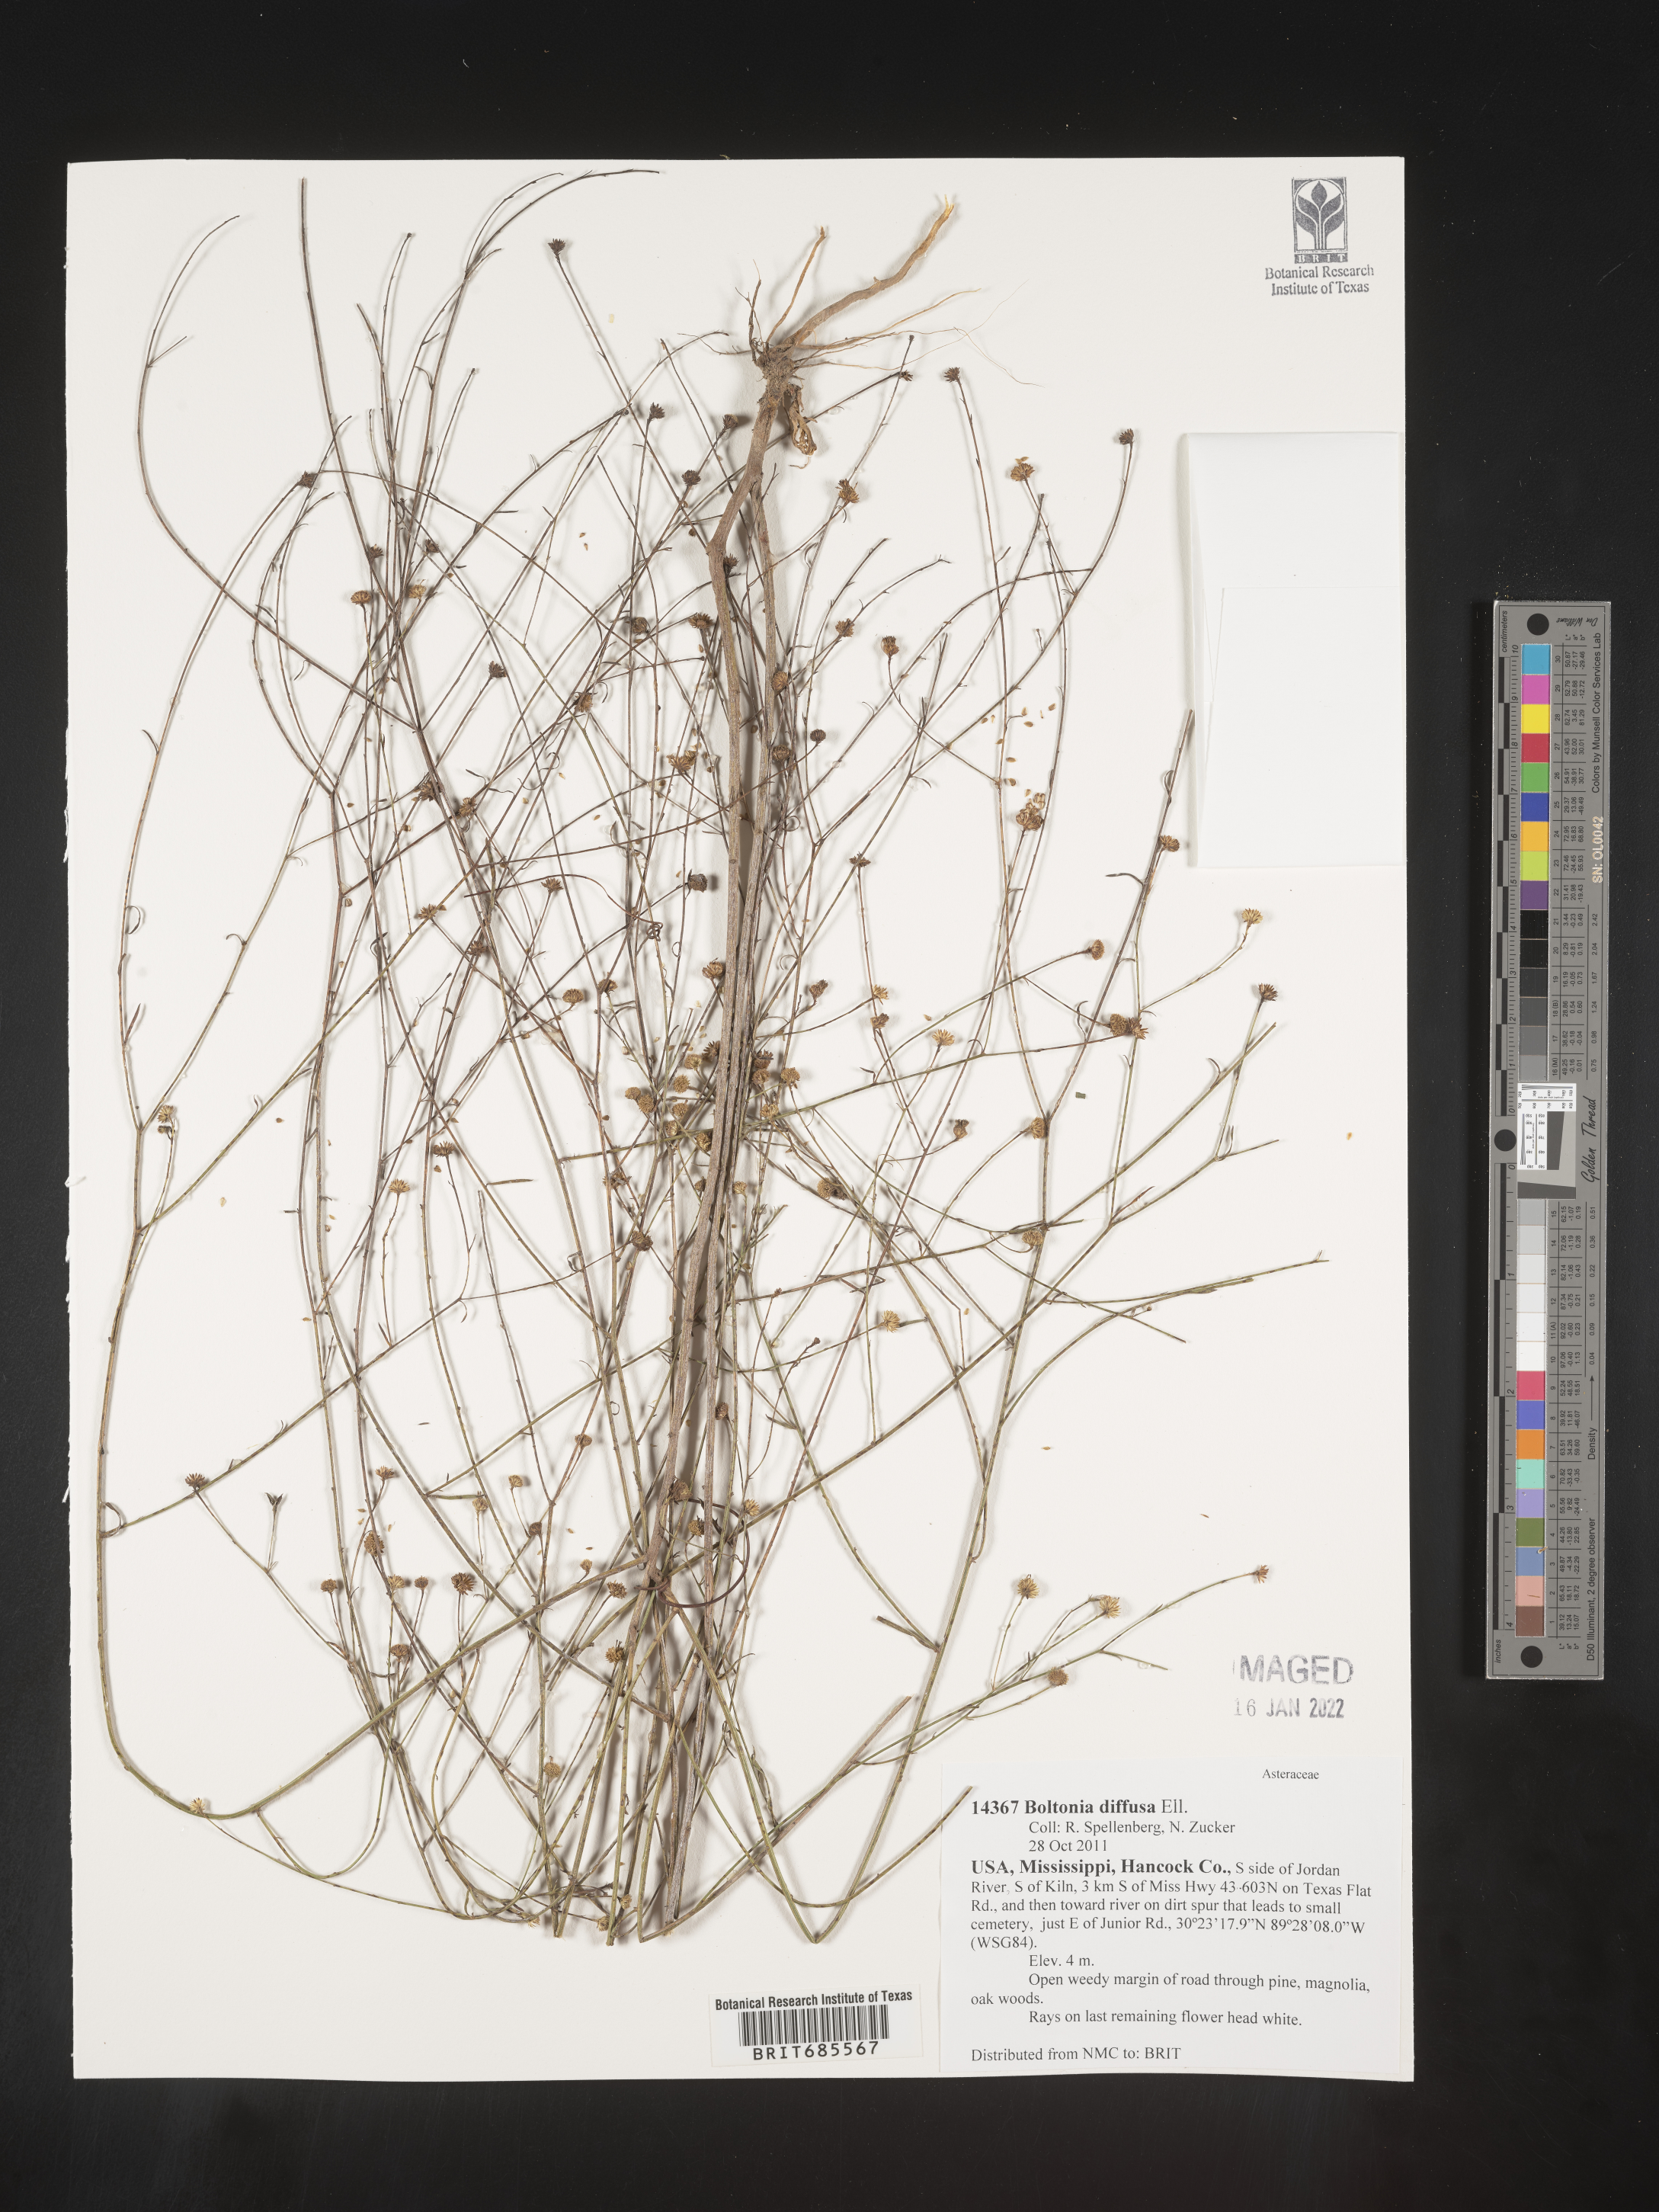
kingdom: Plantae
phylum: Tracheophyta
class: Magnoliopsida
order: Asterales
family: Asteraceae
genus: Boltonia
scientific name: Boltonia diffusa
